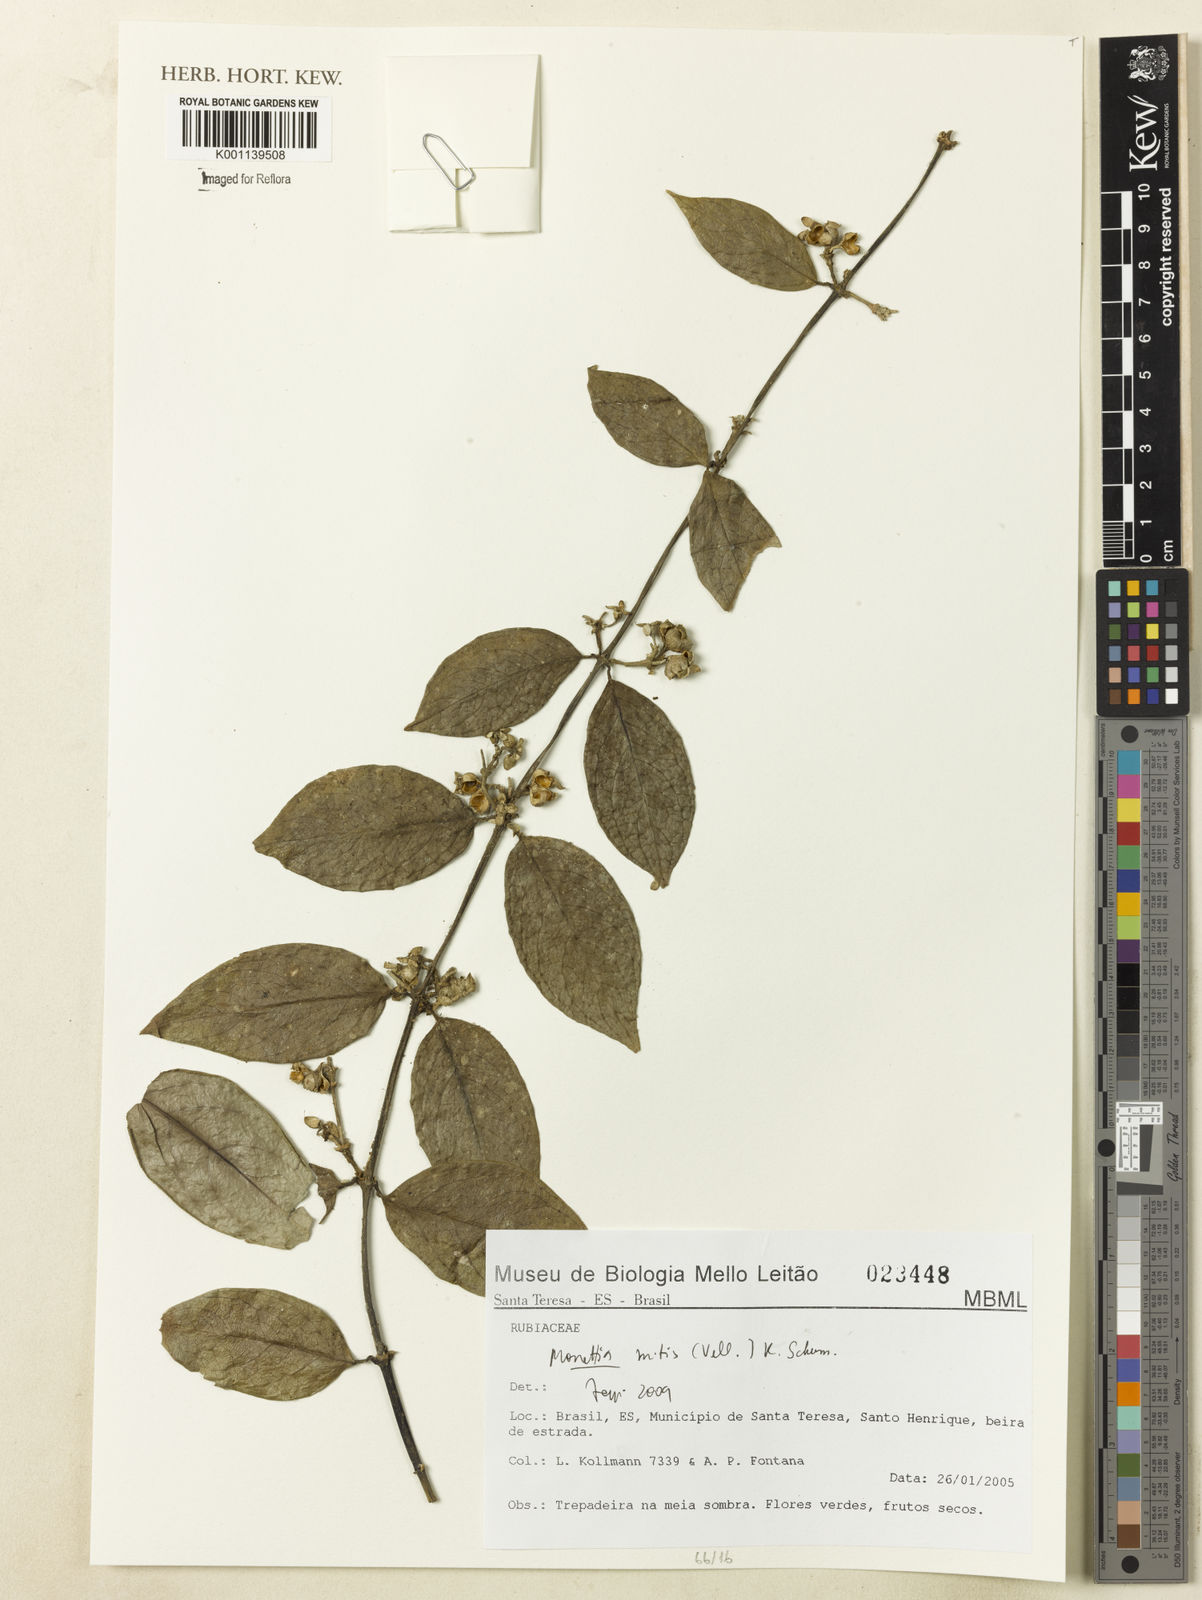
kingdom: Plantae
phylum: Tracheophyta
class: Magnoliopsida
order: Gentianales
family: Rubiaceae
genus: Manettia
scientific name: Manettia mitis
